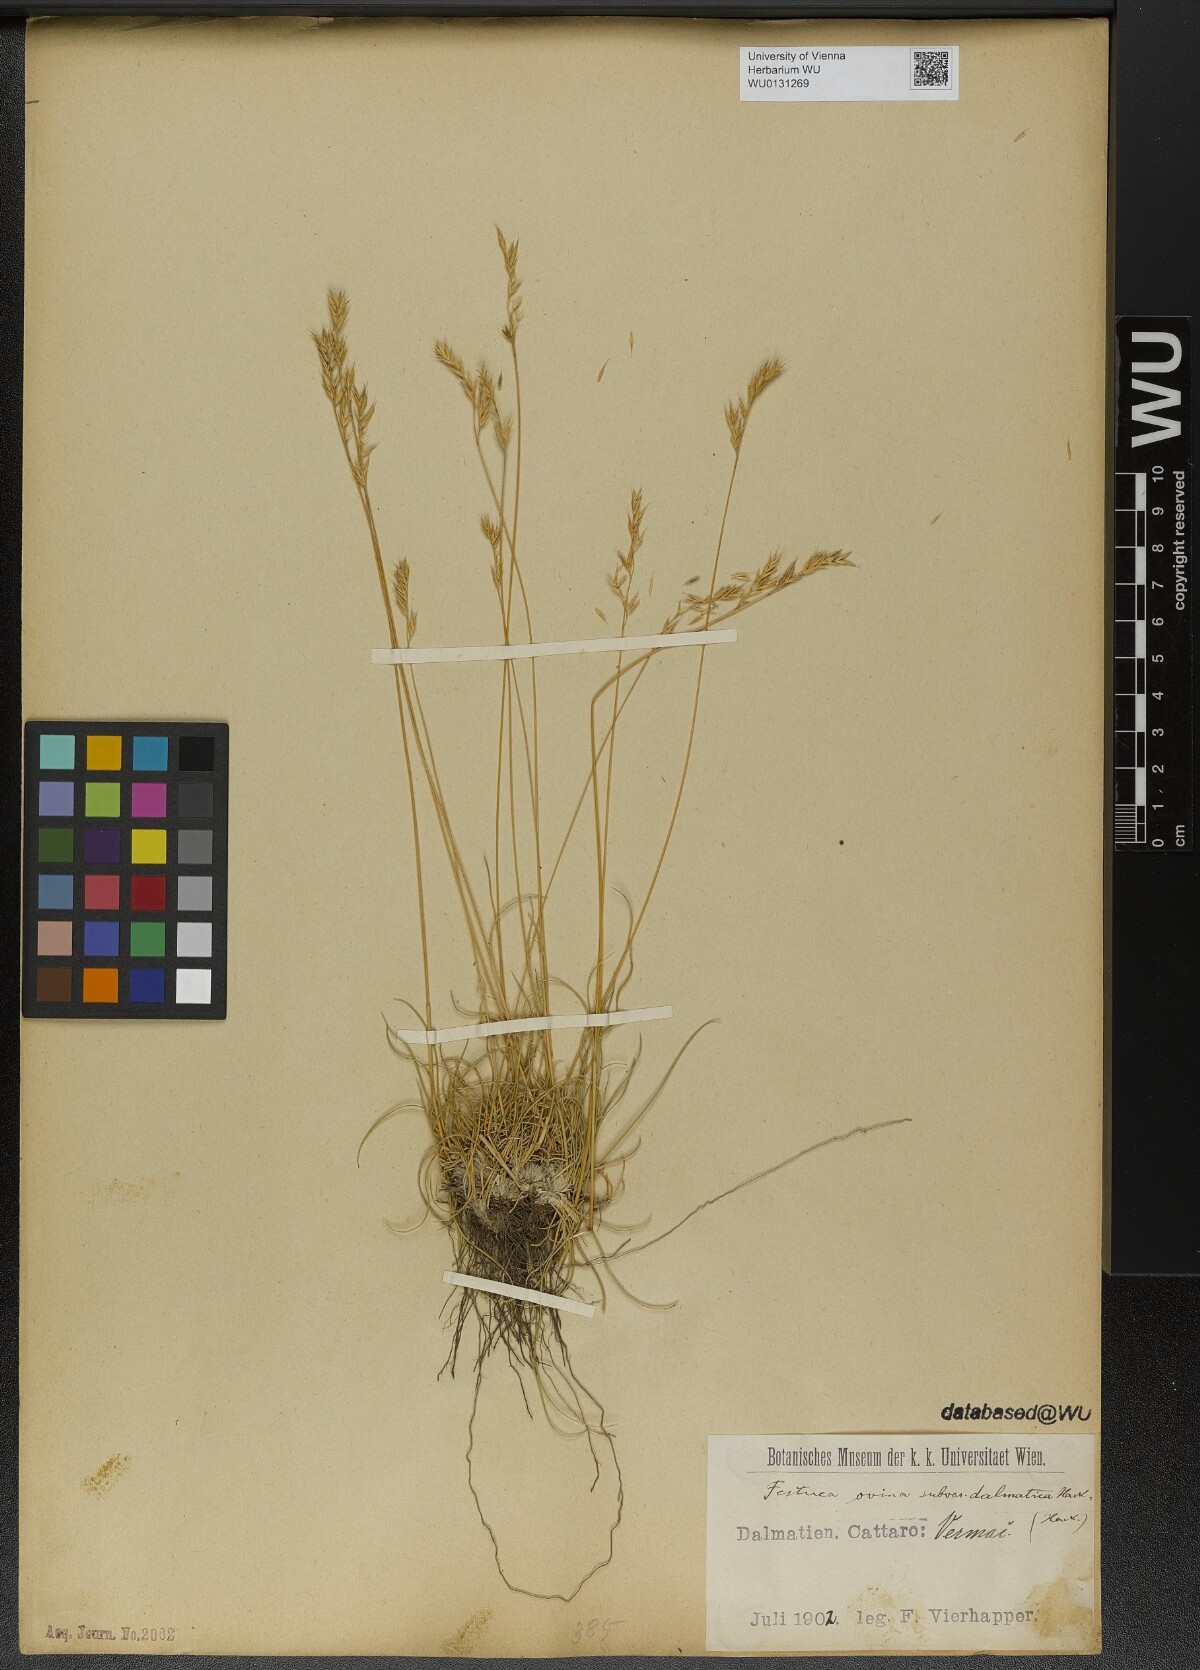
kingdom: Plantae
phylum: Tracheophyta
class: Liliopsida
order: Poales
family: Poaceae
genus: Festuca
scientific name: Festuca dalmatica
